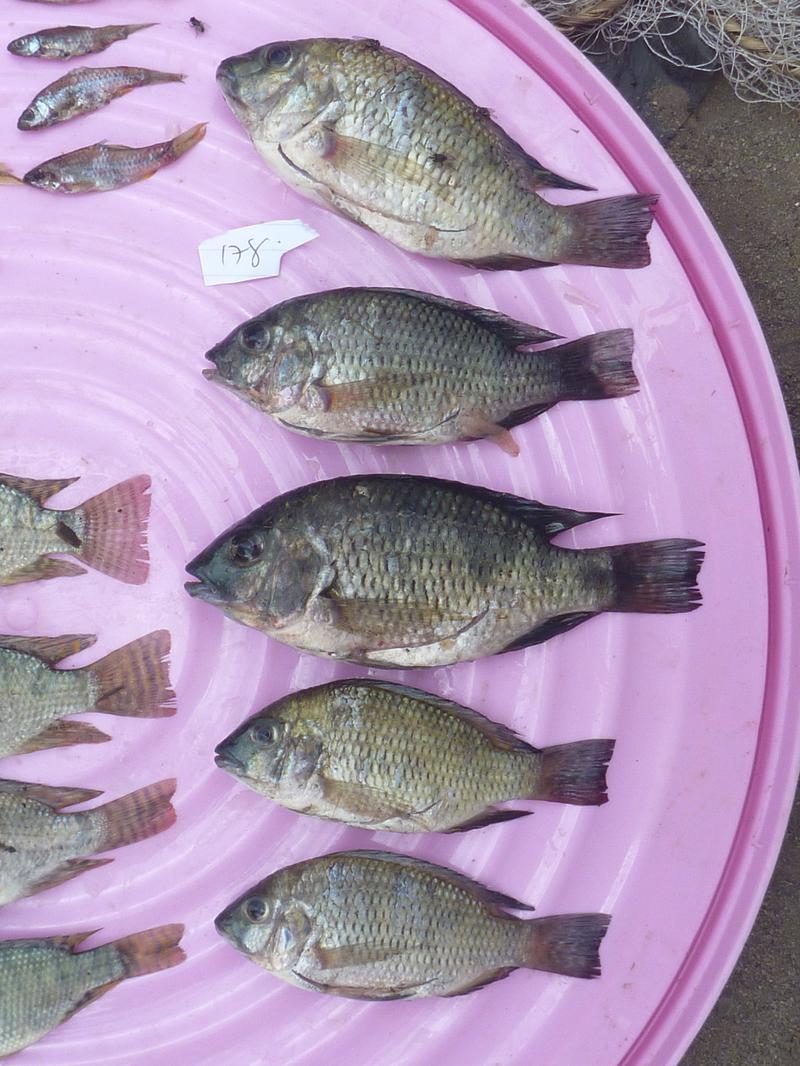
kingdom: Animalia
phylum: Chordata
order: Perciformes
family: Cichlidae
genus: Coptodon
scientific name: Coptodon rendalli
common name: Redbreast tilapia
